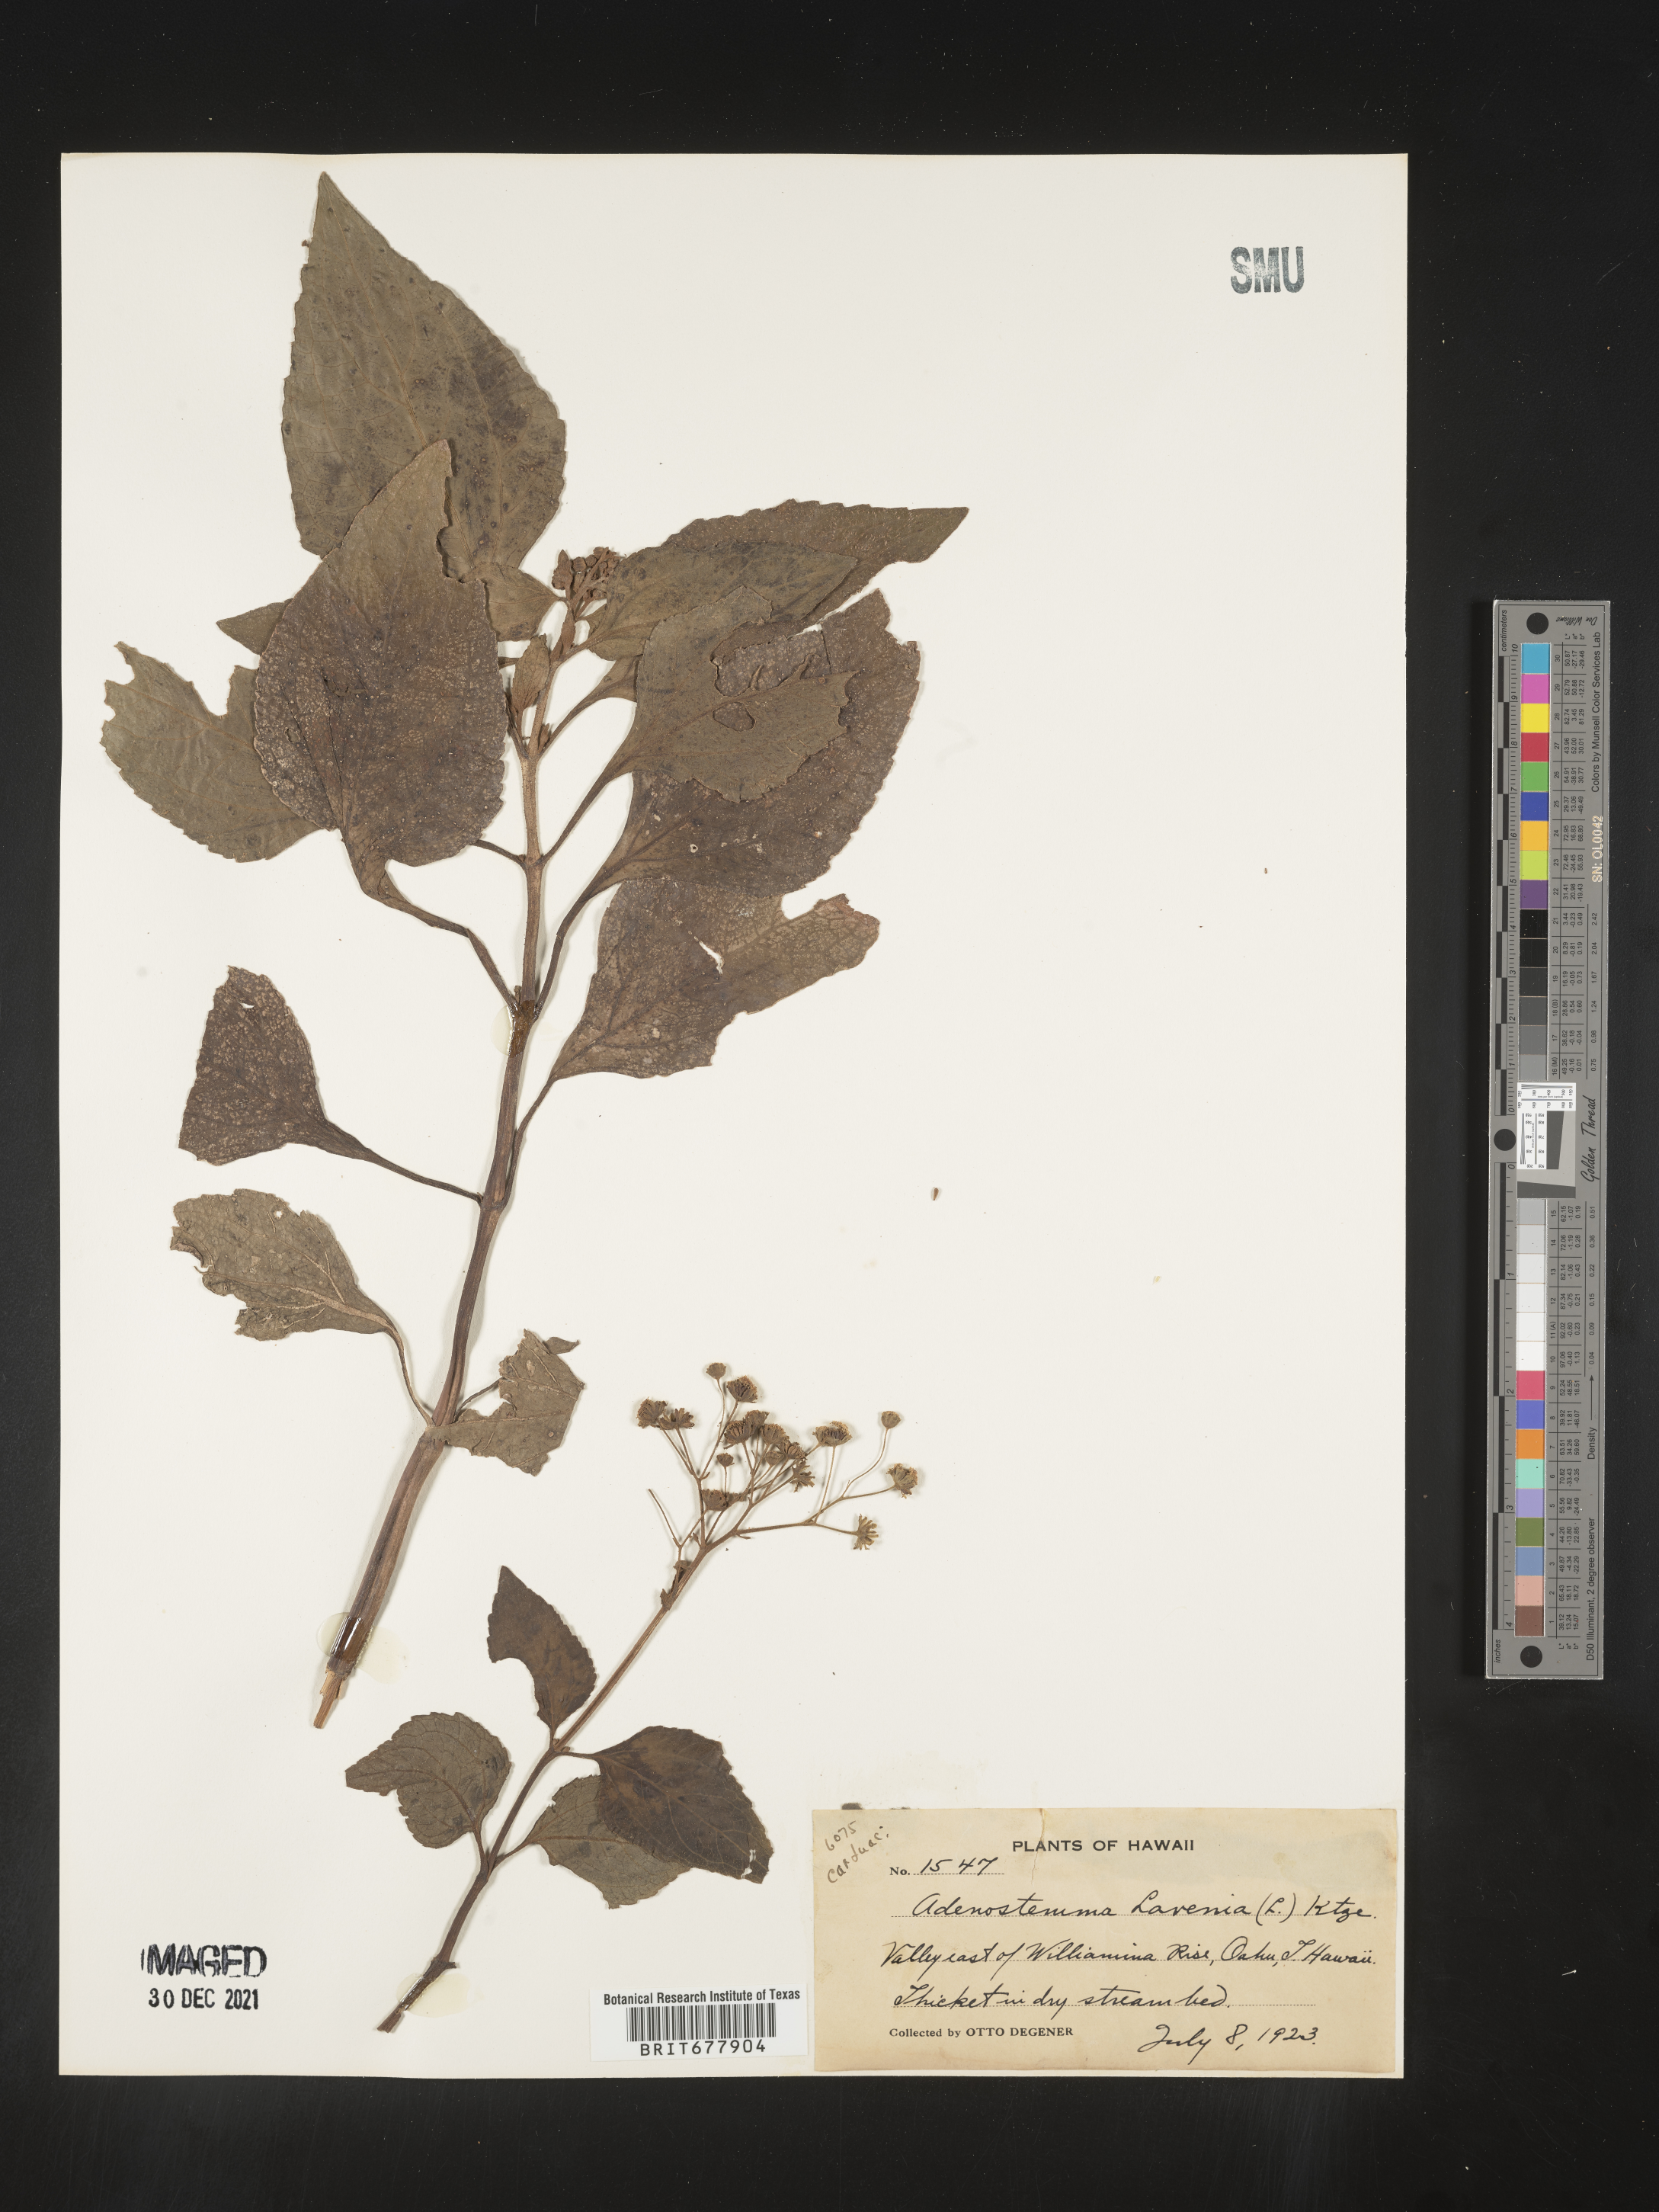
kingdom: Plantae
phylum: Tracheophyta
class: Magnoliopsida
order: Asterales
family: Asteraceae
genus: Adenostemma
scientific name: Adenostemma lavenia
